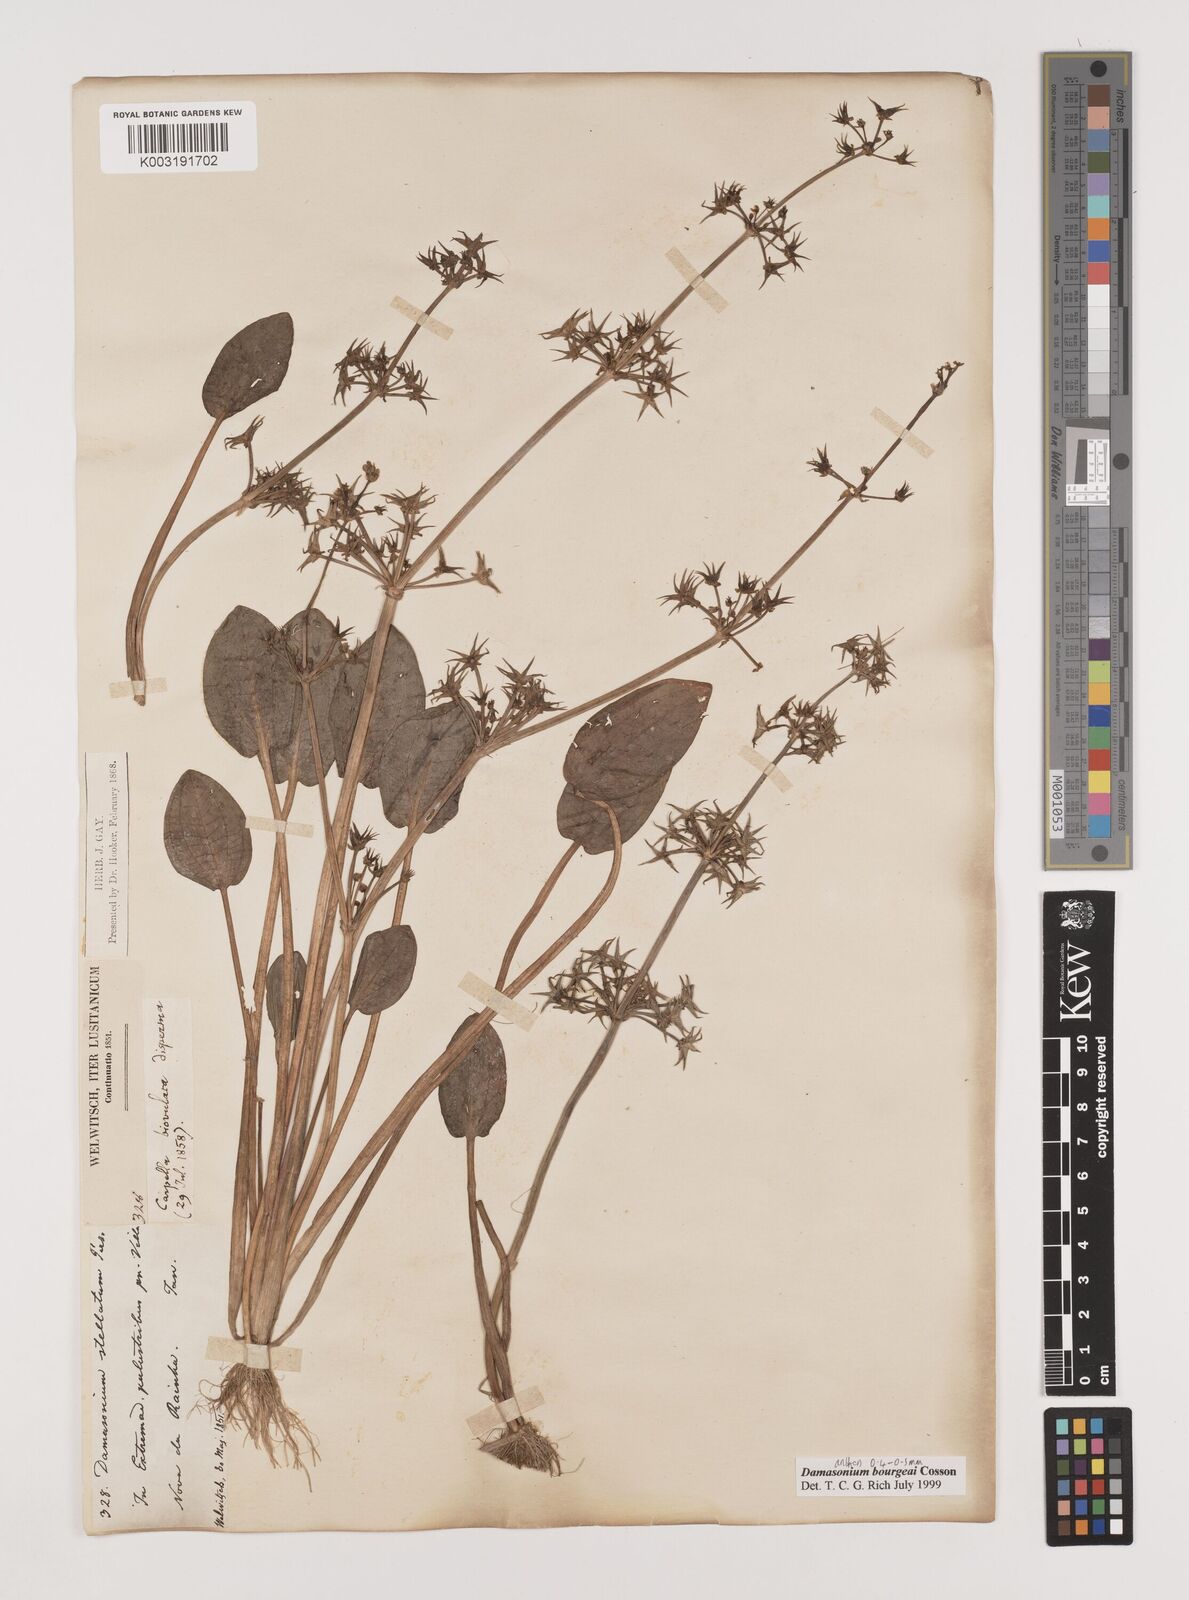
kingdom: Plantae
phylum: Tracheophyta
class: Liliopsida
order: Alismatales
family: Alismataceae
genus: Damasonium
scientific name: Damasonium bourgaei
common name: Starfruit
